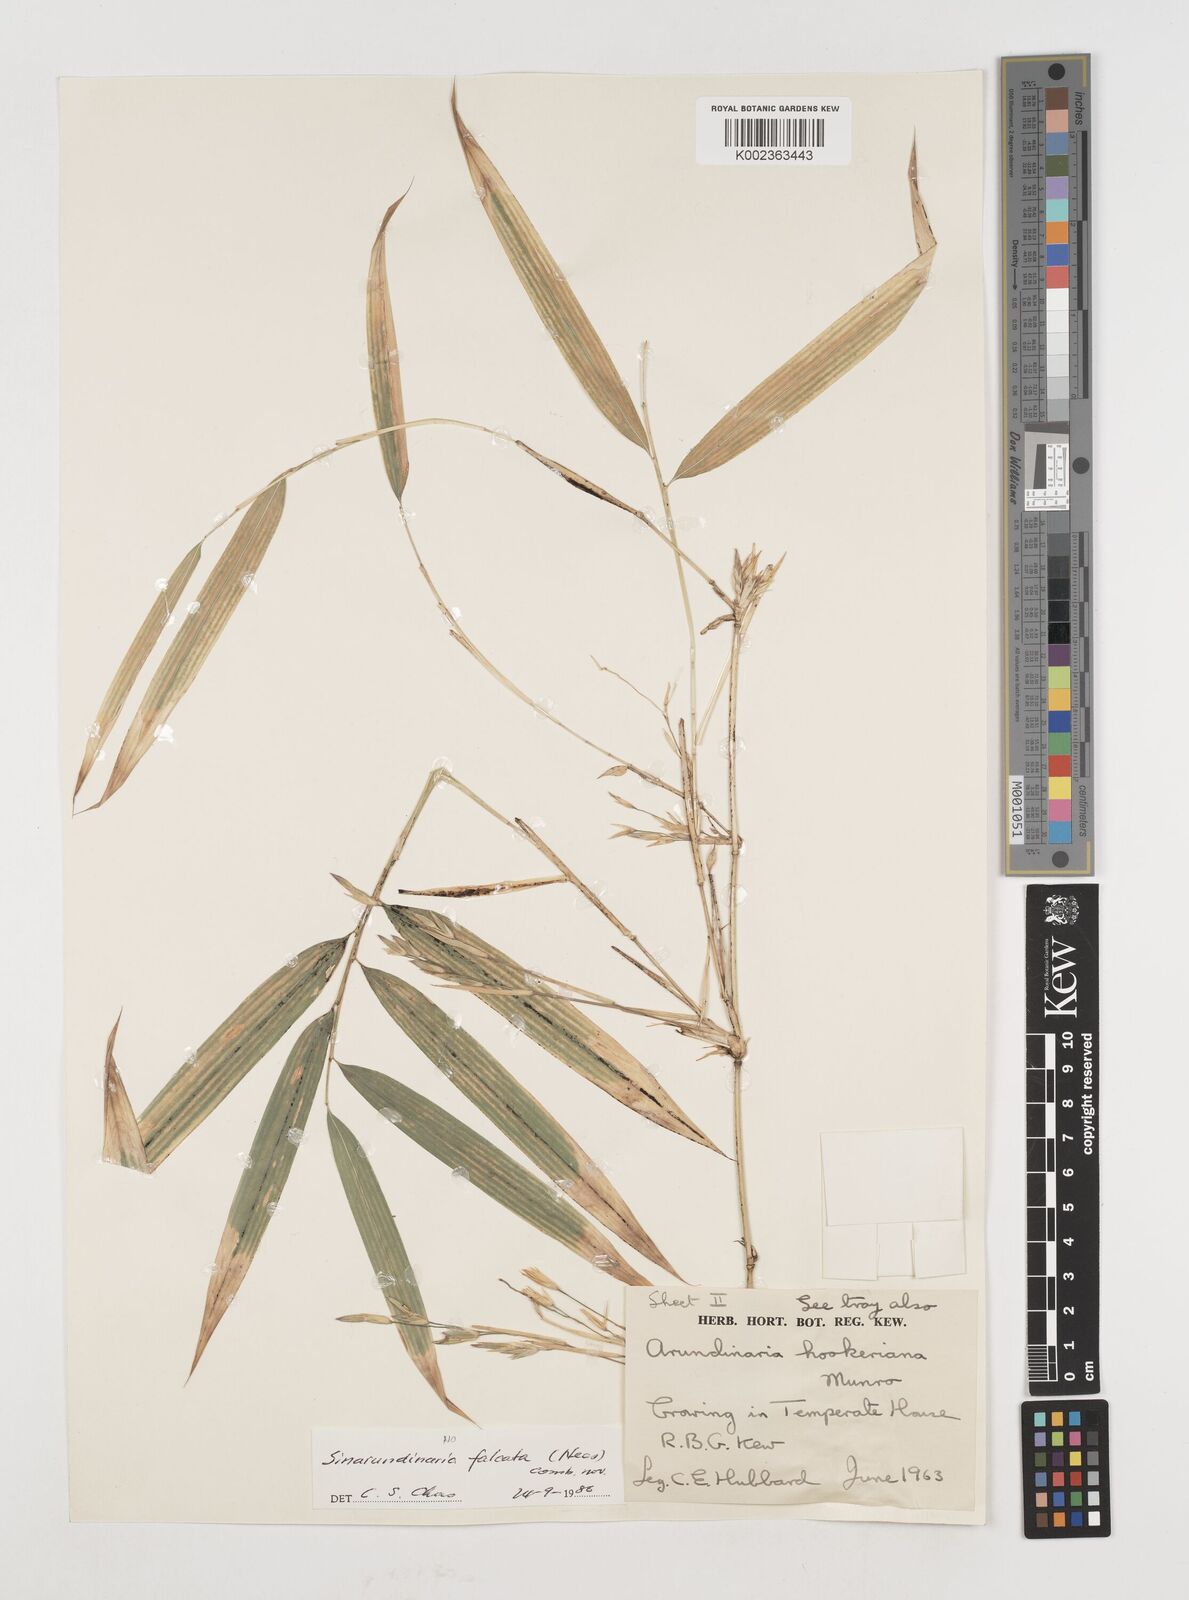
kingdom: Plantae
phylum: Tracheophyta
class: Liliopsida
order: Poales
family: Poaceae
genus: Himalayacalamus
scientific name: Himalayacalamus hookerianus
